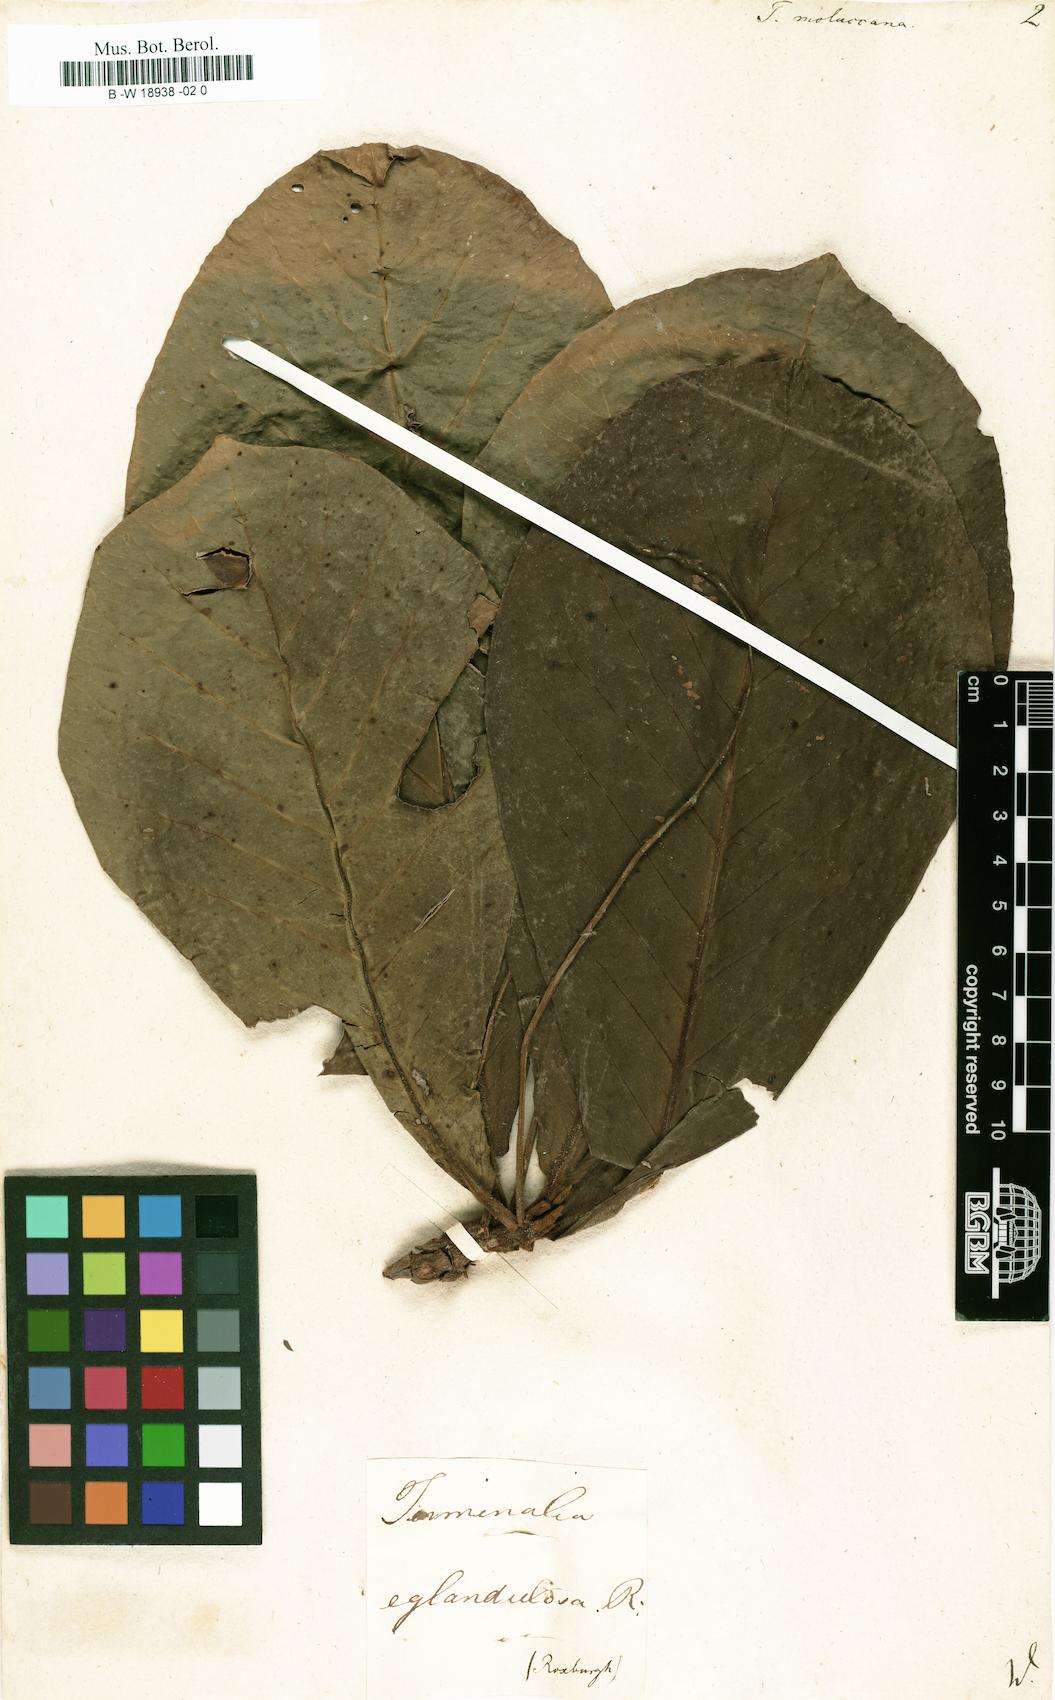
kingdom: Plantae
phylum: Tracheophyta
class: Magnoliopsida
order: Myrtales
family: Combretaceae
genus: Terminalia
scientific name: Terminalia catappa
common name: Tropical almond
